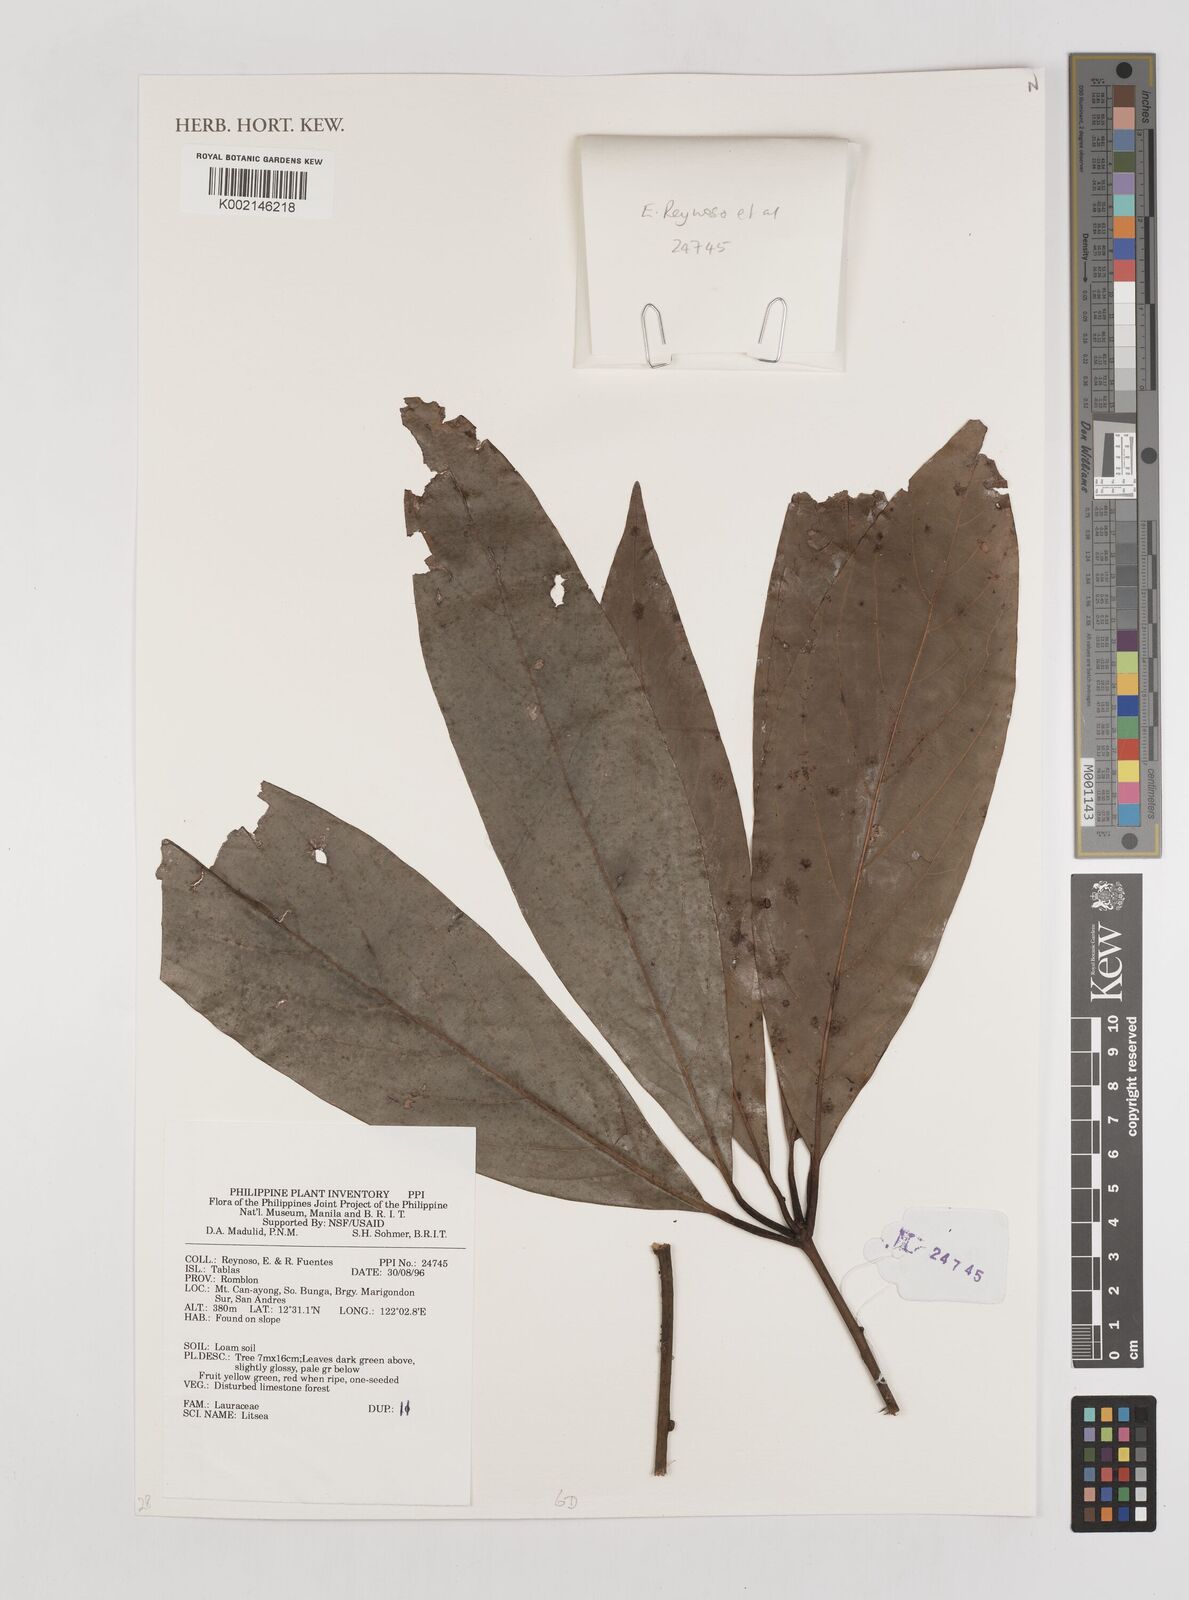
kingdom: Plantae
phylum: Tracheophyta
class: Magnoliopsida
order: Laurales
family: Lauraceae
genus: Litsea
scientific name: Litsea
